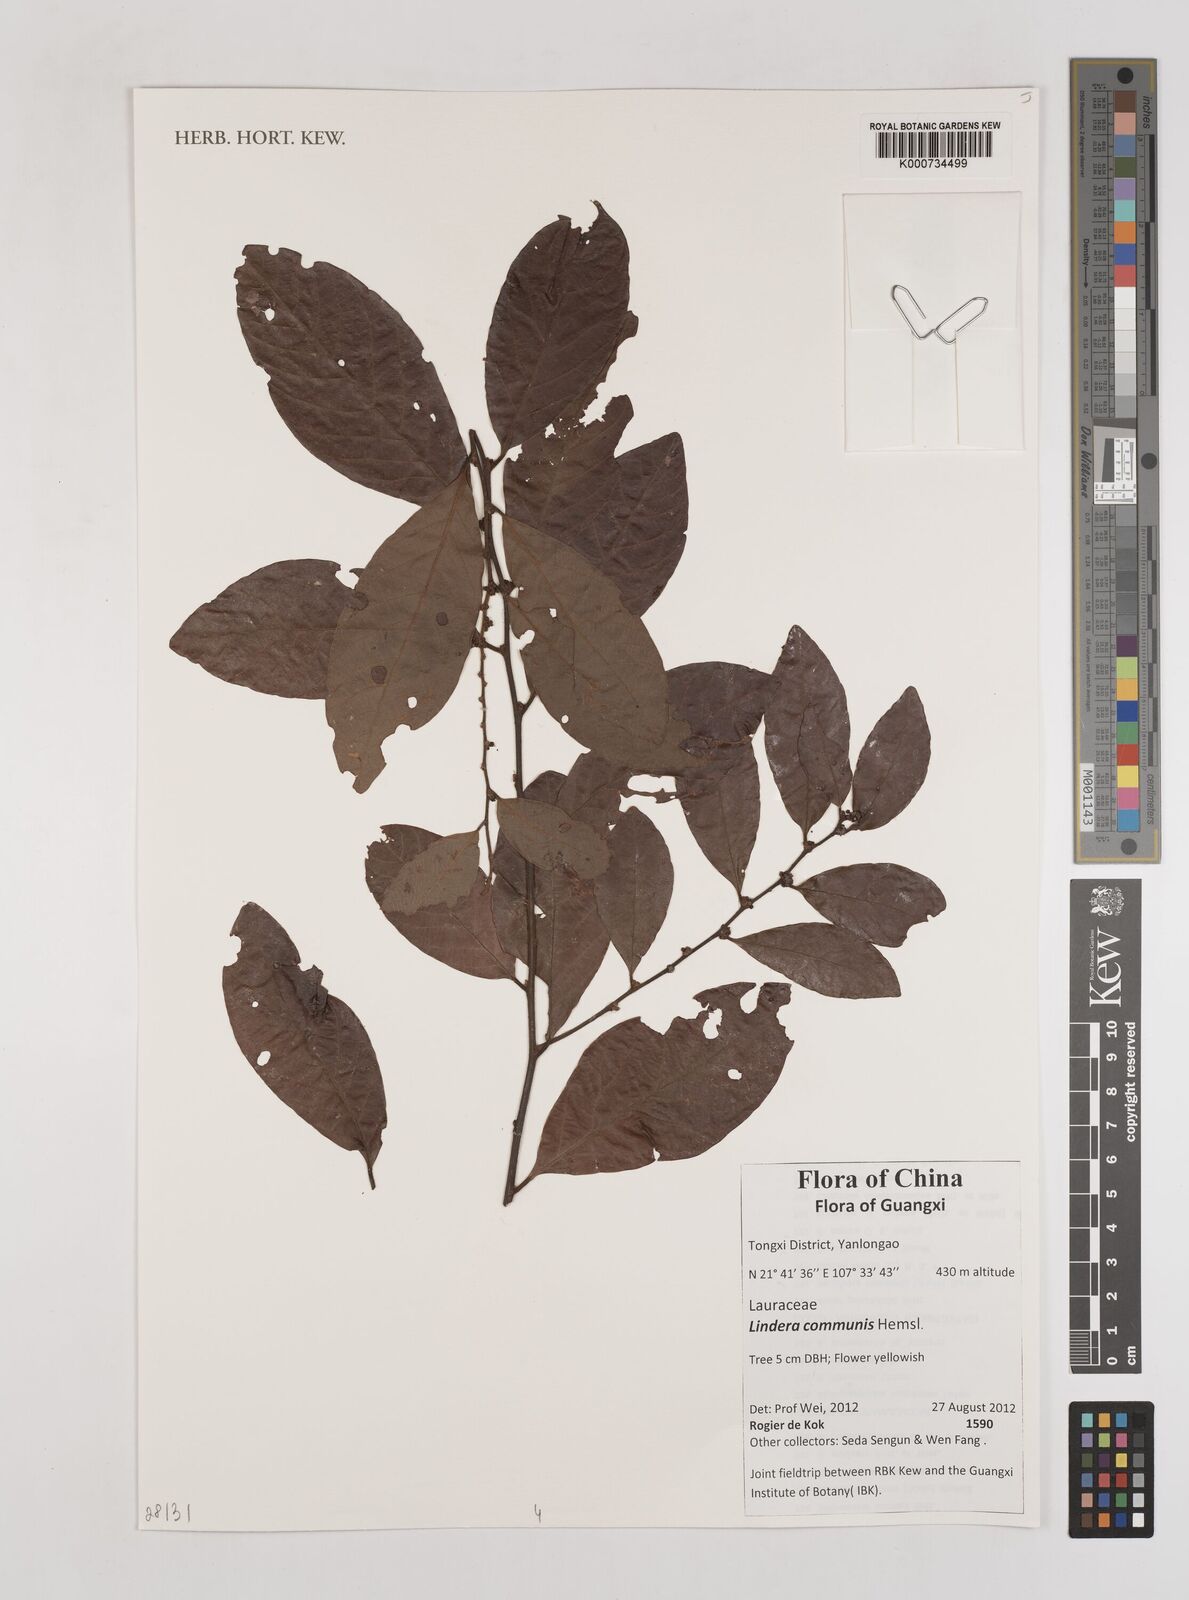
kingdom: Plantae
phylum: Tracheophyta
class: Magnoliopsida
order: Laurales
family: Lauraceae
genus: Lindera
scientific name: Lindera communis
